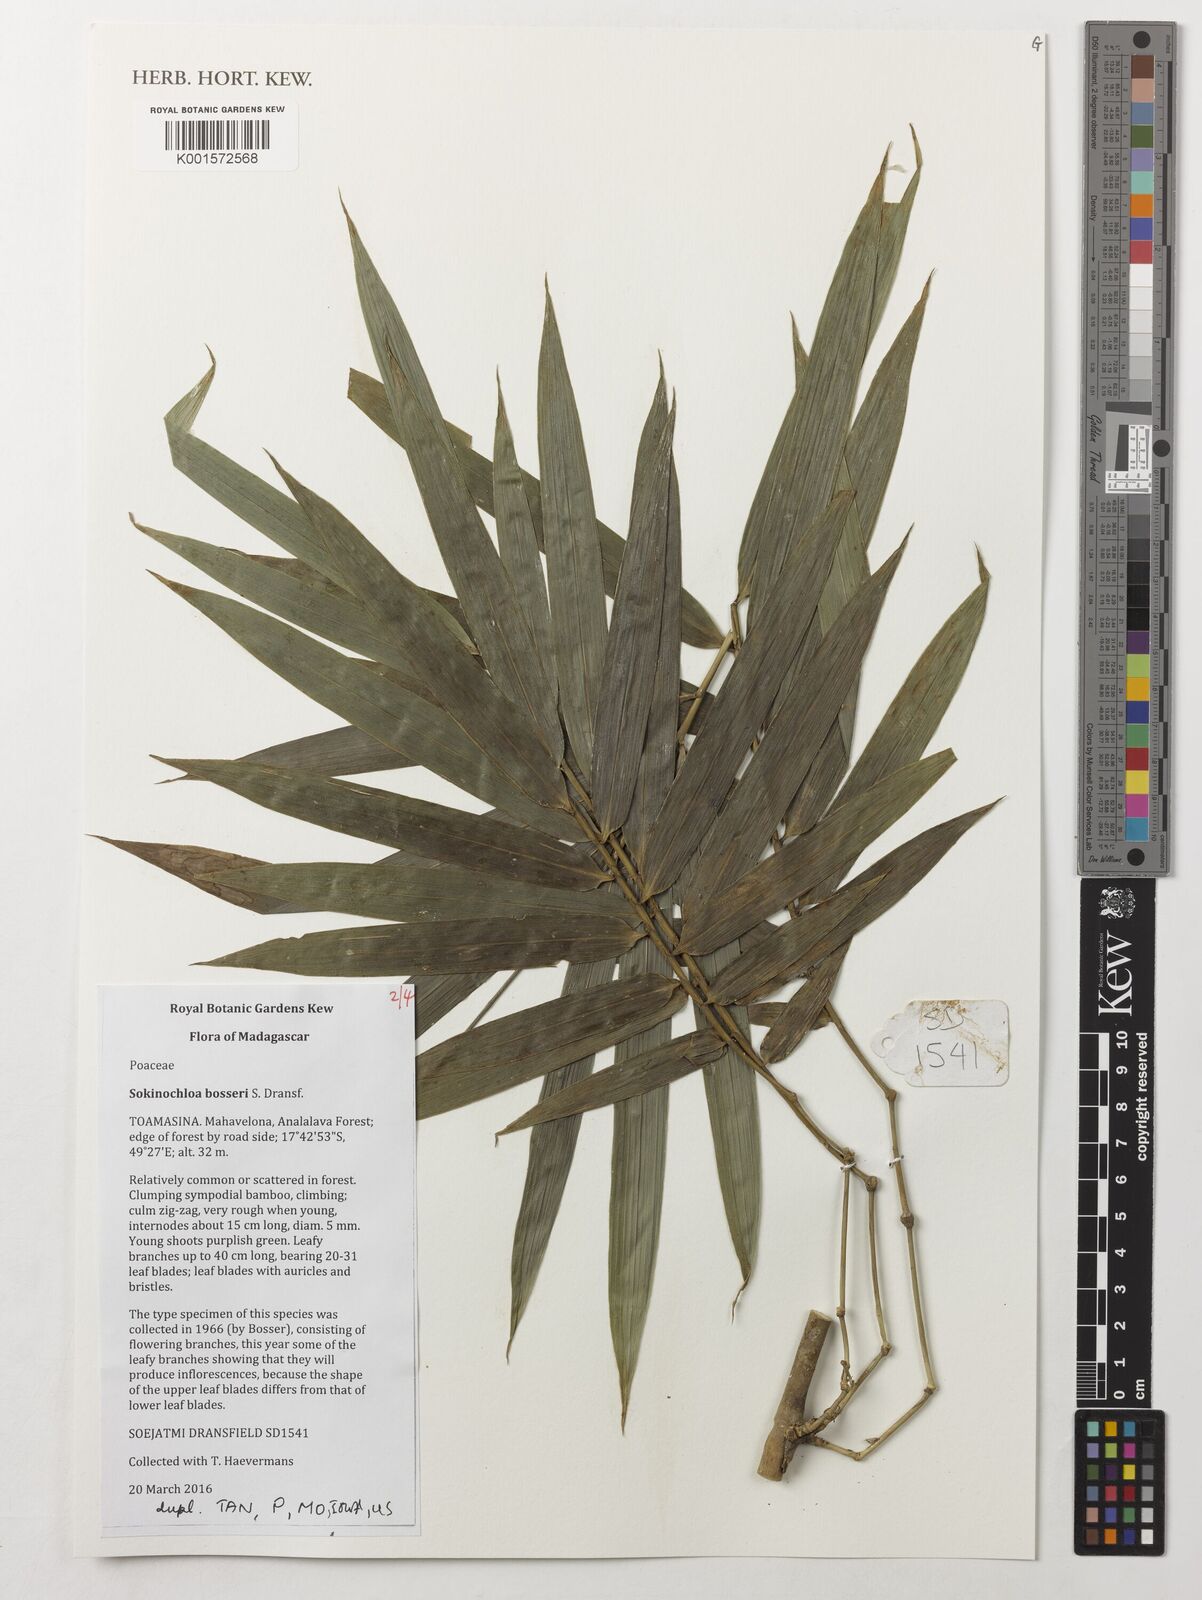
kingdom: Plantae
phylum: Tracheophyta
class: Liliopsida
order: Poales
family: Poaceae
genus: Sokinochloa
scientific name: Sokinochloa bosseri
